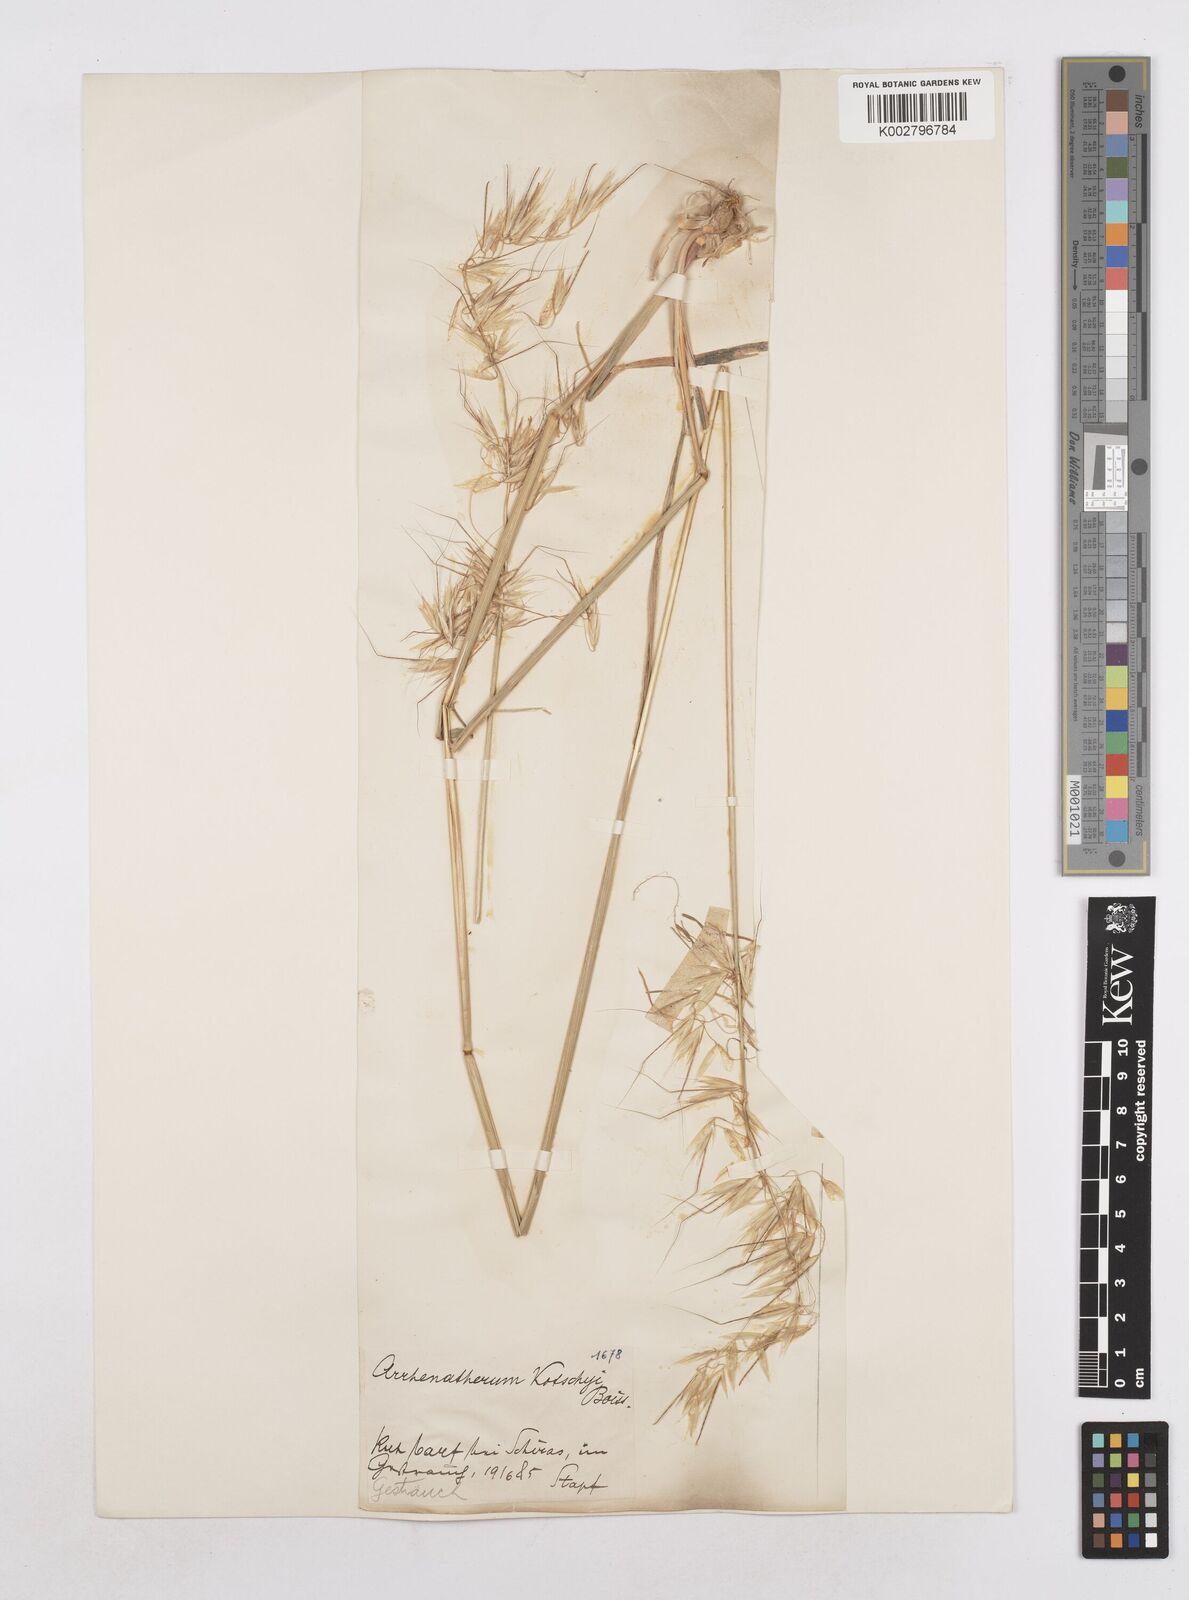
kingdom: Plantae
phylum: Tracheophyta
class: Liliopsida
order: Poales
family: Poaceae
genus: Arrhenatherum
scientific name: Arrhenatherum kotschyi
